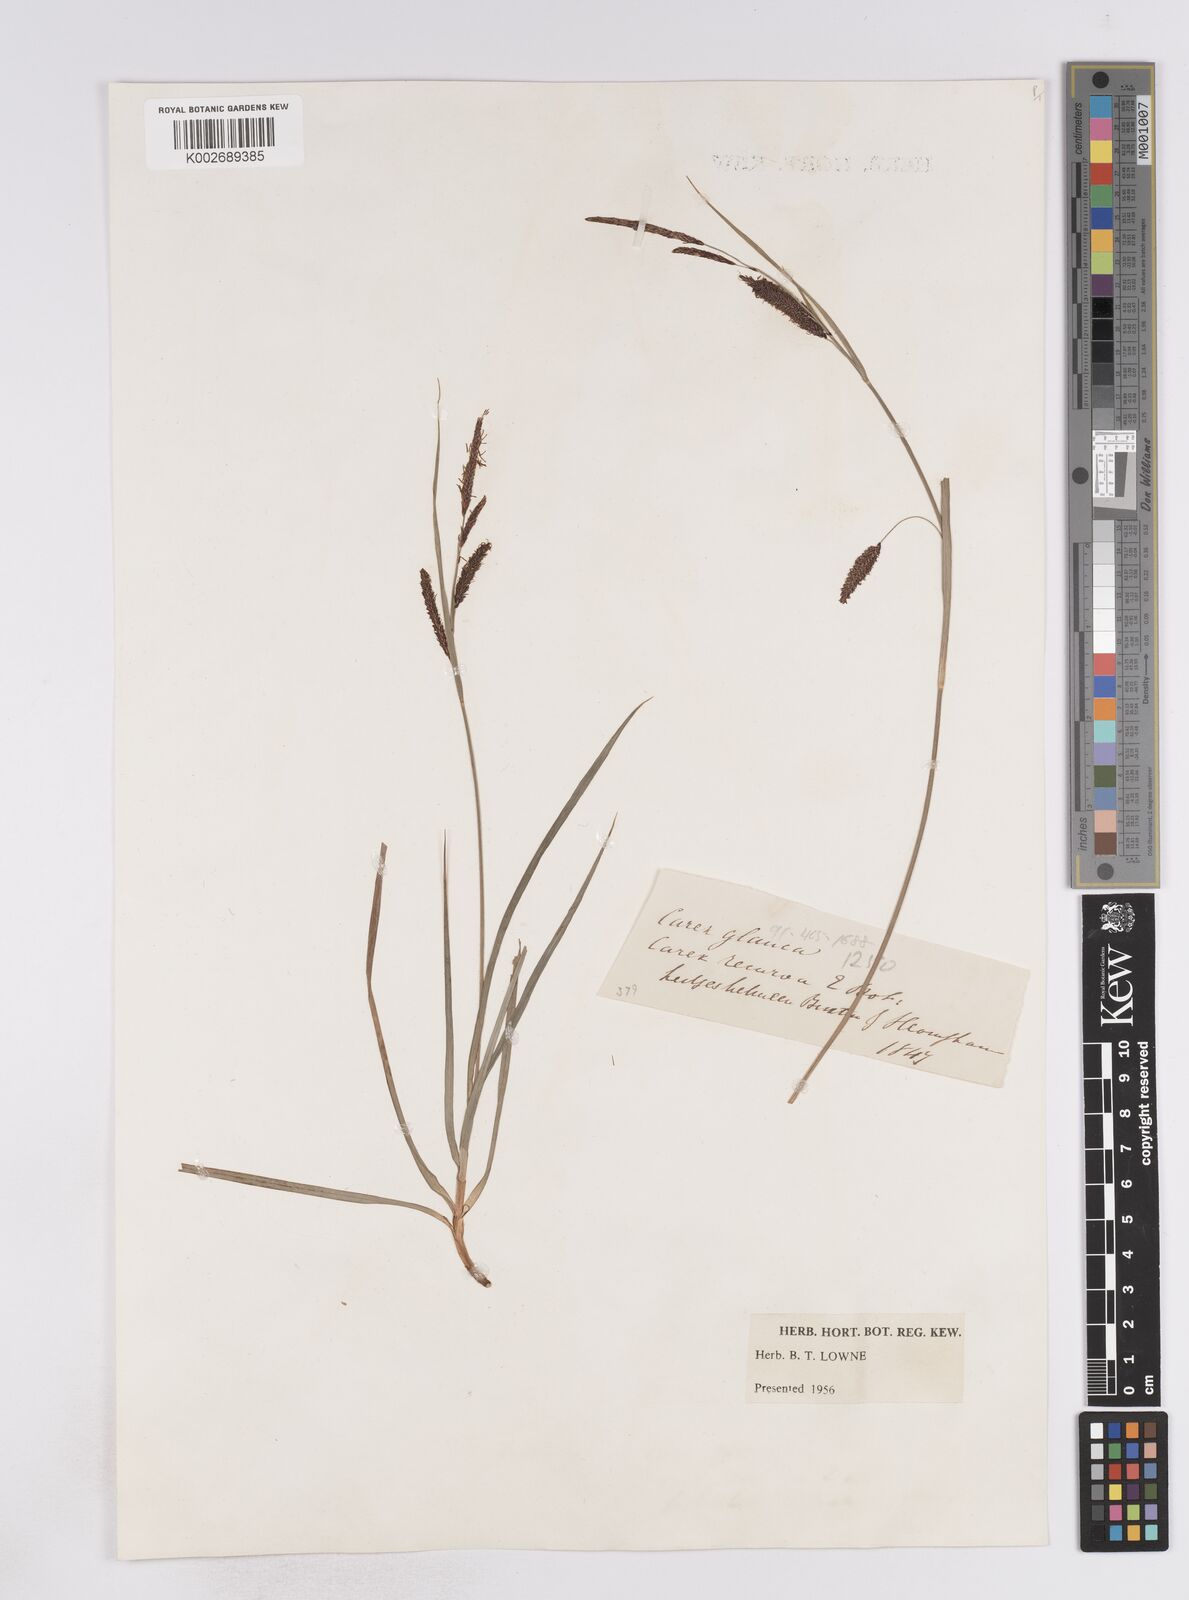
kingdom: Plantae
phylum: Tracheophyta
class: Liliopsida
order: Poales
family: Cyperaceae
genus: Carex
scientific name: Carex flacca
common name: Glaucous sedge
